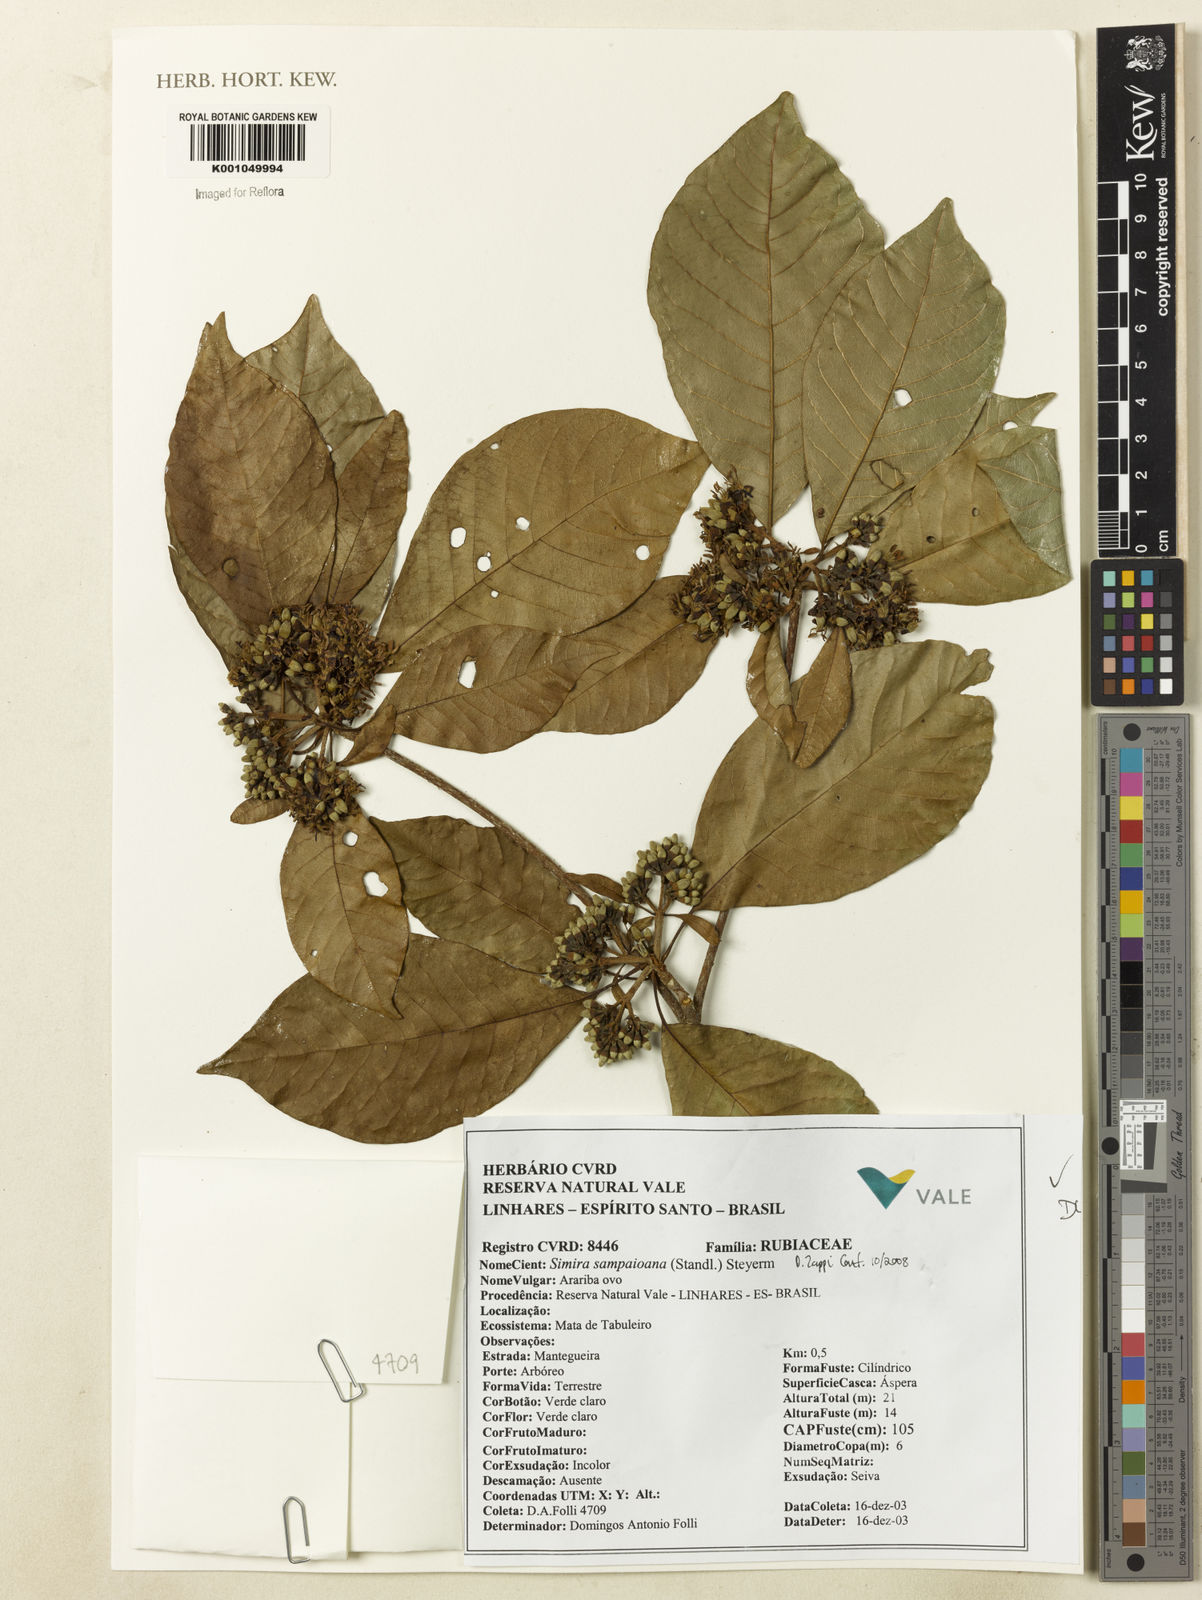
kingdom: Plantae
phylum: Tracheophyta
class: Magnoliopsida
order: Gentianales
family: Rubiaceae
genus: Simira
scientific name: Simira sampaioana
